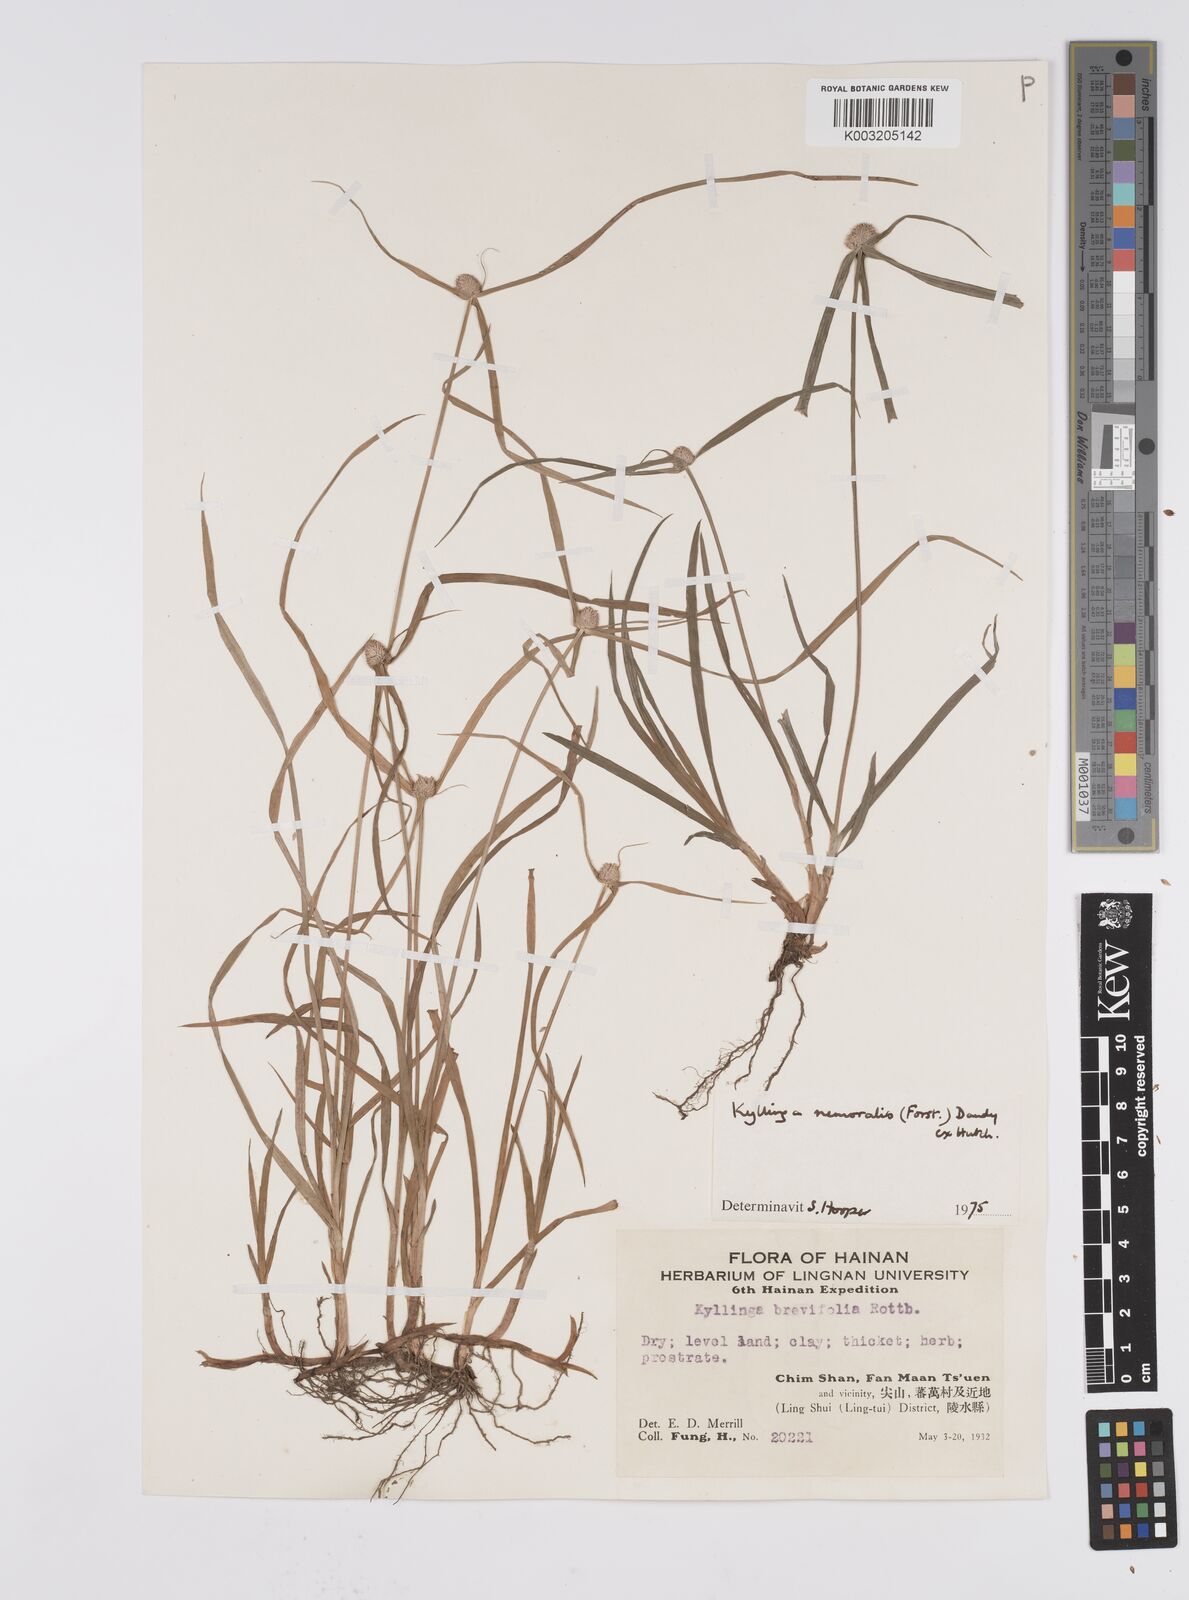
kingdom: Plantae
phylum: Tracheophyta
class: Liliopsida
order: Poales
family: Cyperaceae
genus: Cyperus
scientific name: Cyperus nemoralis
